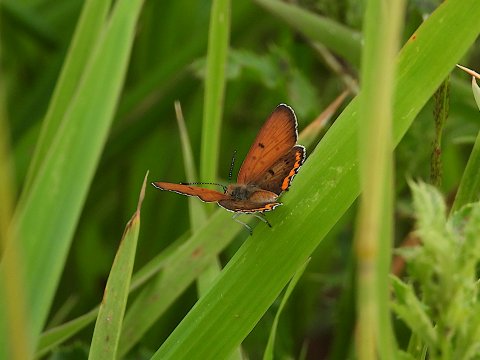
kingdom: Animalia
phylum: Arthropoda
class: Insecta
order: Lepidoptera
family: Sesiidae
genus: Sesia
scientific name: Sesia Lycaena hyllus
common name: Bronze Copper
